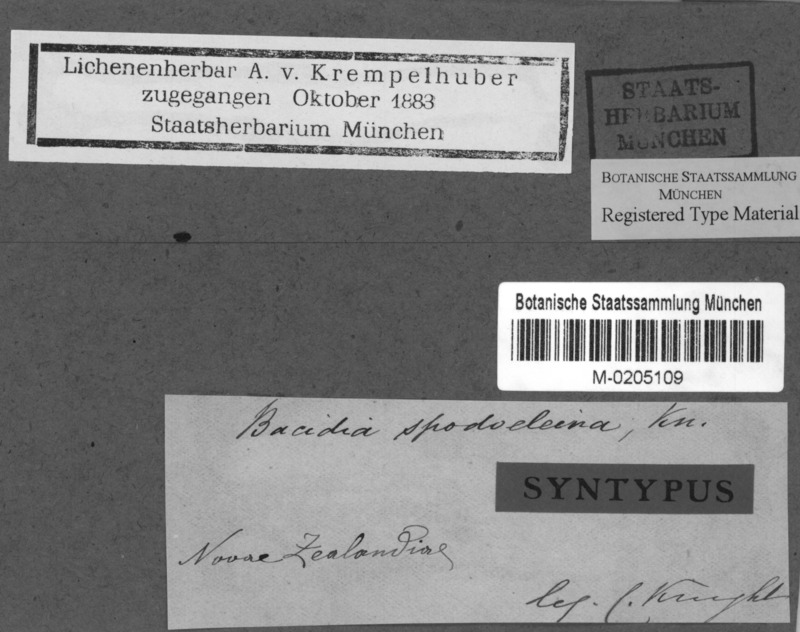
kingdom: Fungi
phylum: Ascomycota
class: Lecanoromycetes
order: Lecanorales
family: Ramalinaceae
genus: Bacidia
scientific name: Bacidia wellingtonii
